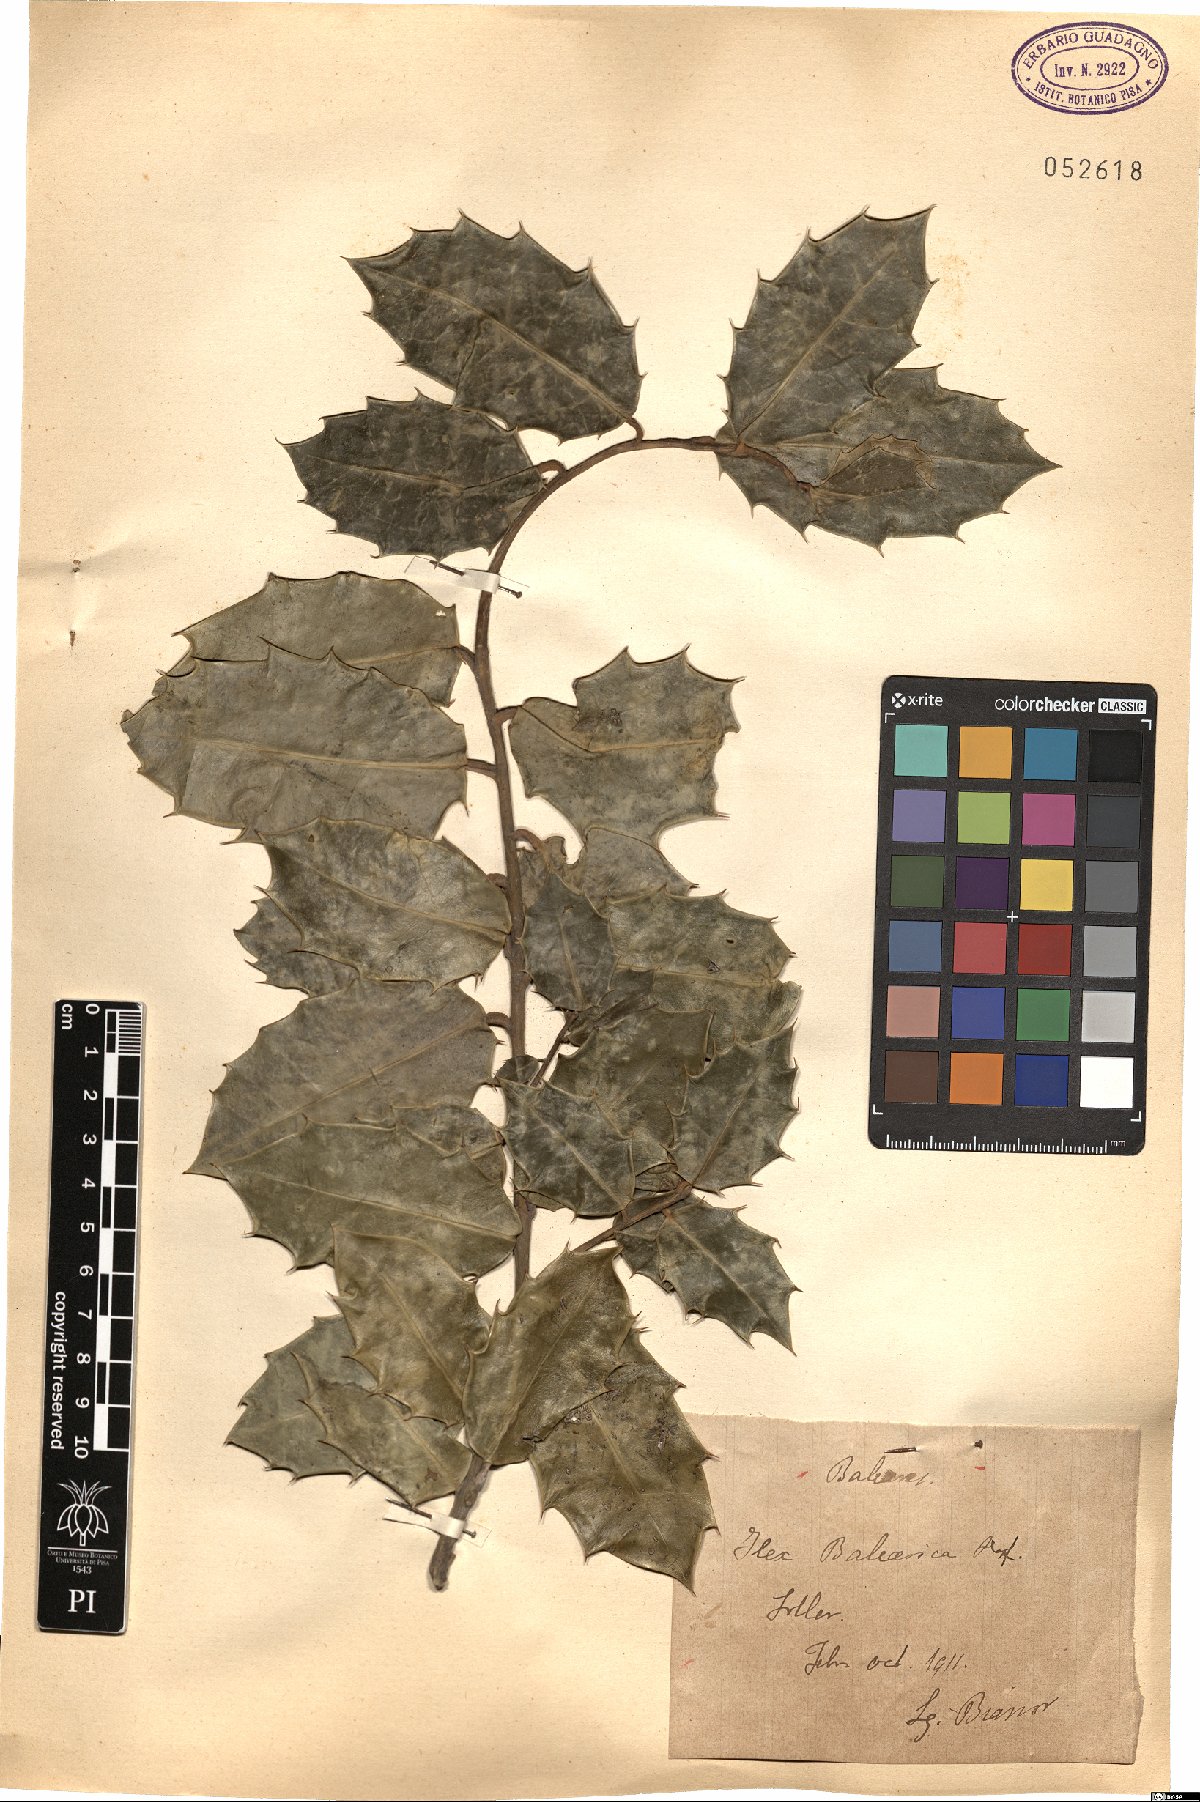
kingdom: Plantae
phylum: Tracheophyta
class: Magnoliopsida
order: Aquifoliales
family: Aquifoliaceae
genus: Ilex
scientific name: Ilex aquifolium
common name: English holly
